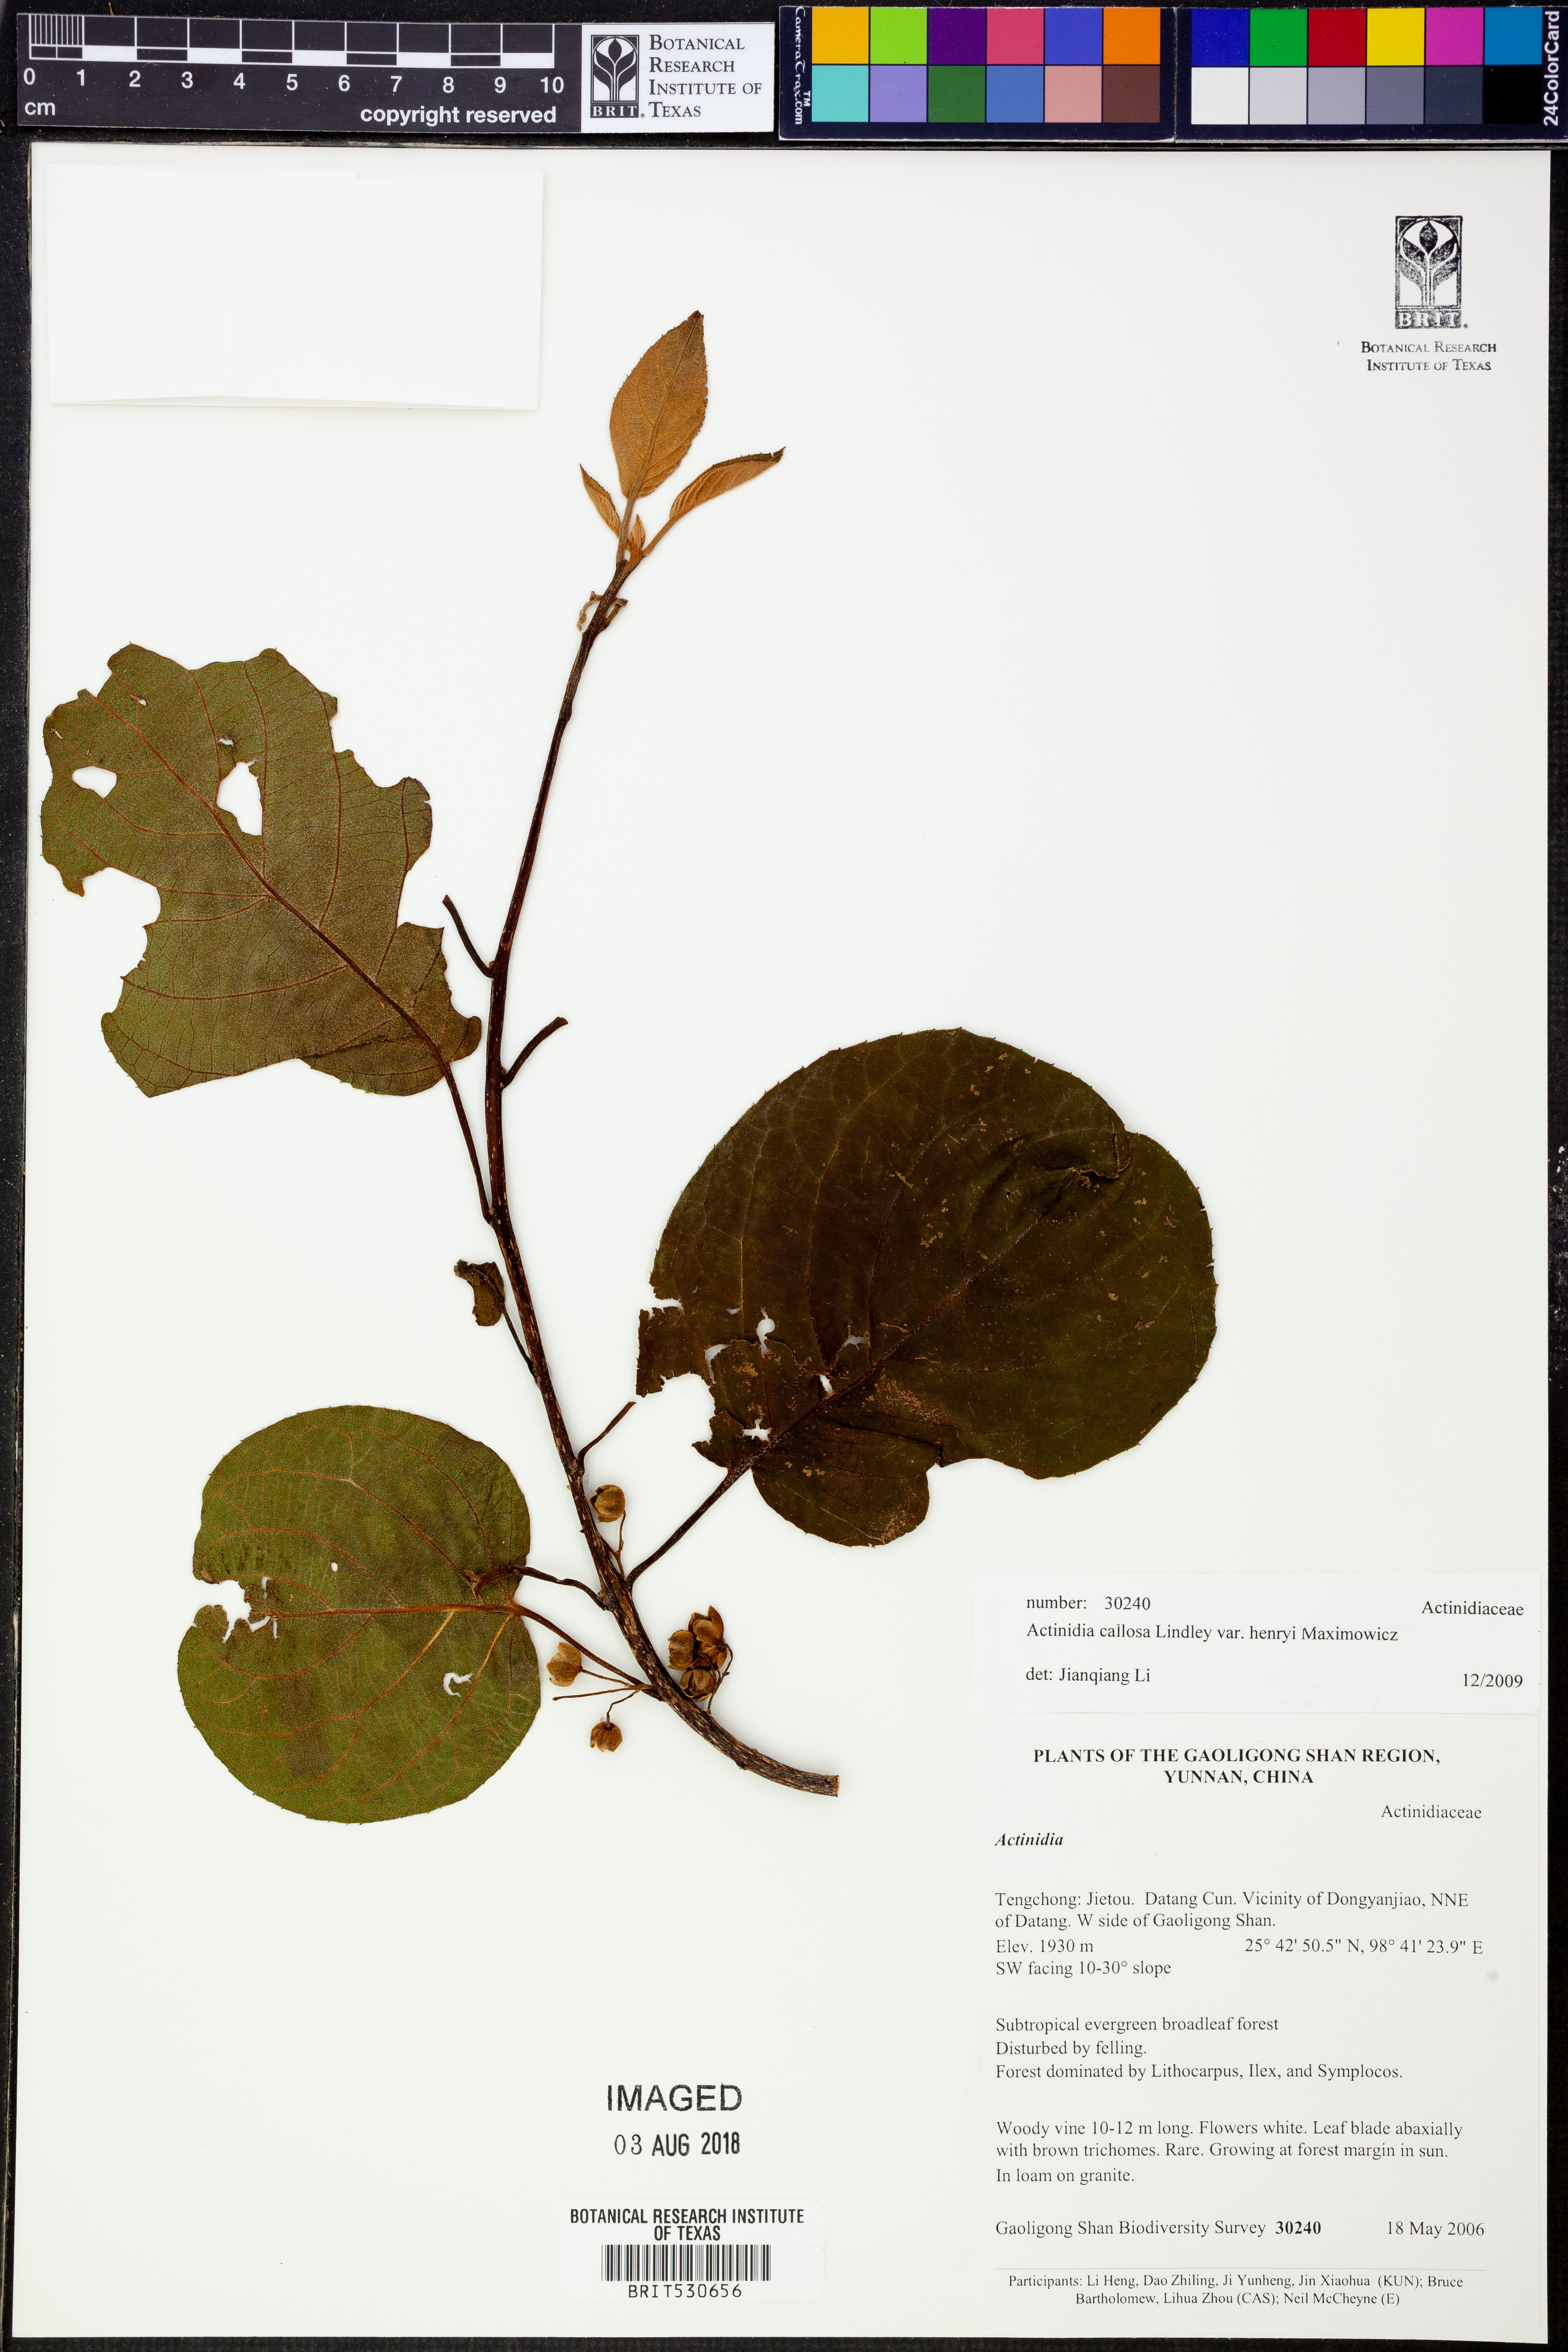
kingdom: Plantae
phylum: Tracheophyta
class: Magnoliopsida
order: Ericales
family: Actinidiaceae
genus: Actinidia
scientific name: Actinidia rufa
